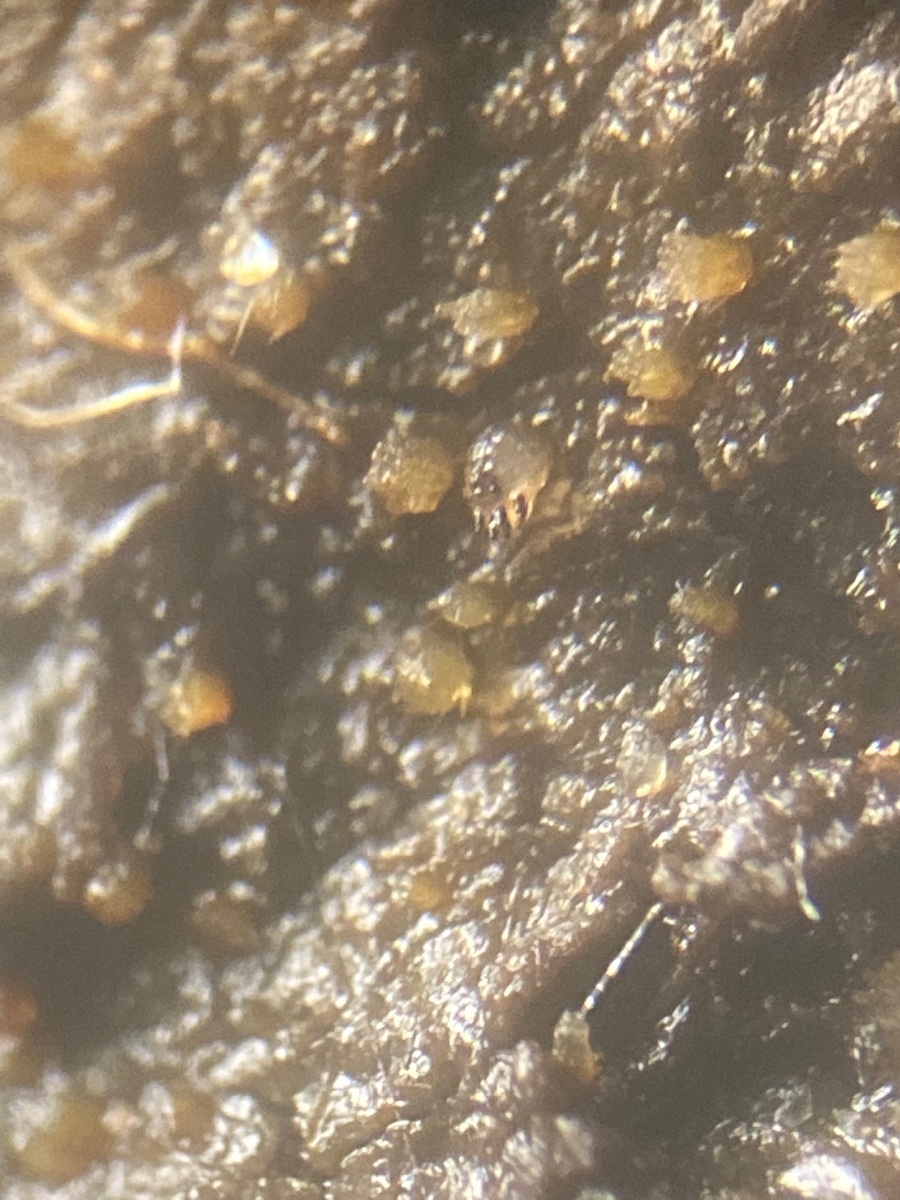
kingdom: Fungi
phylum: Ascomycota
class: Pezizomycetes
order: Pezizales
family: Ascobolaceae
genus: Ascobolus
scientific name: Ascobolus albidus
